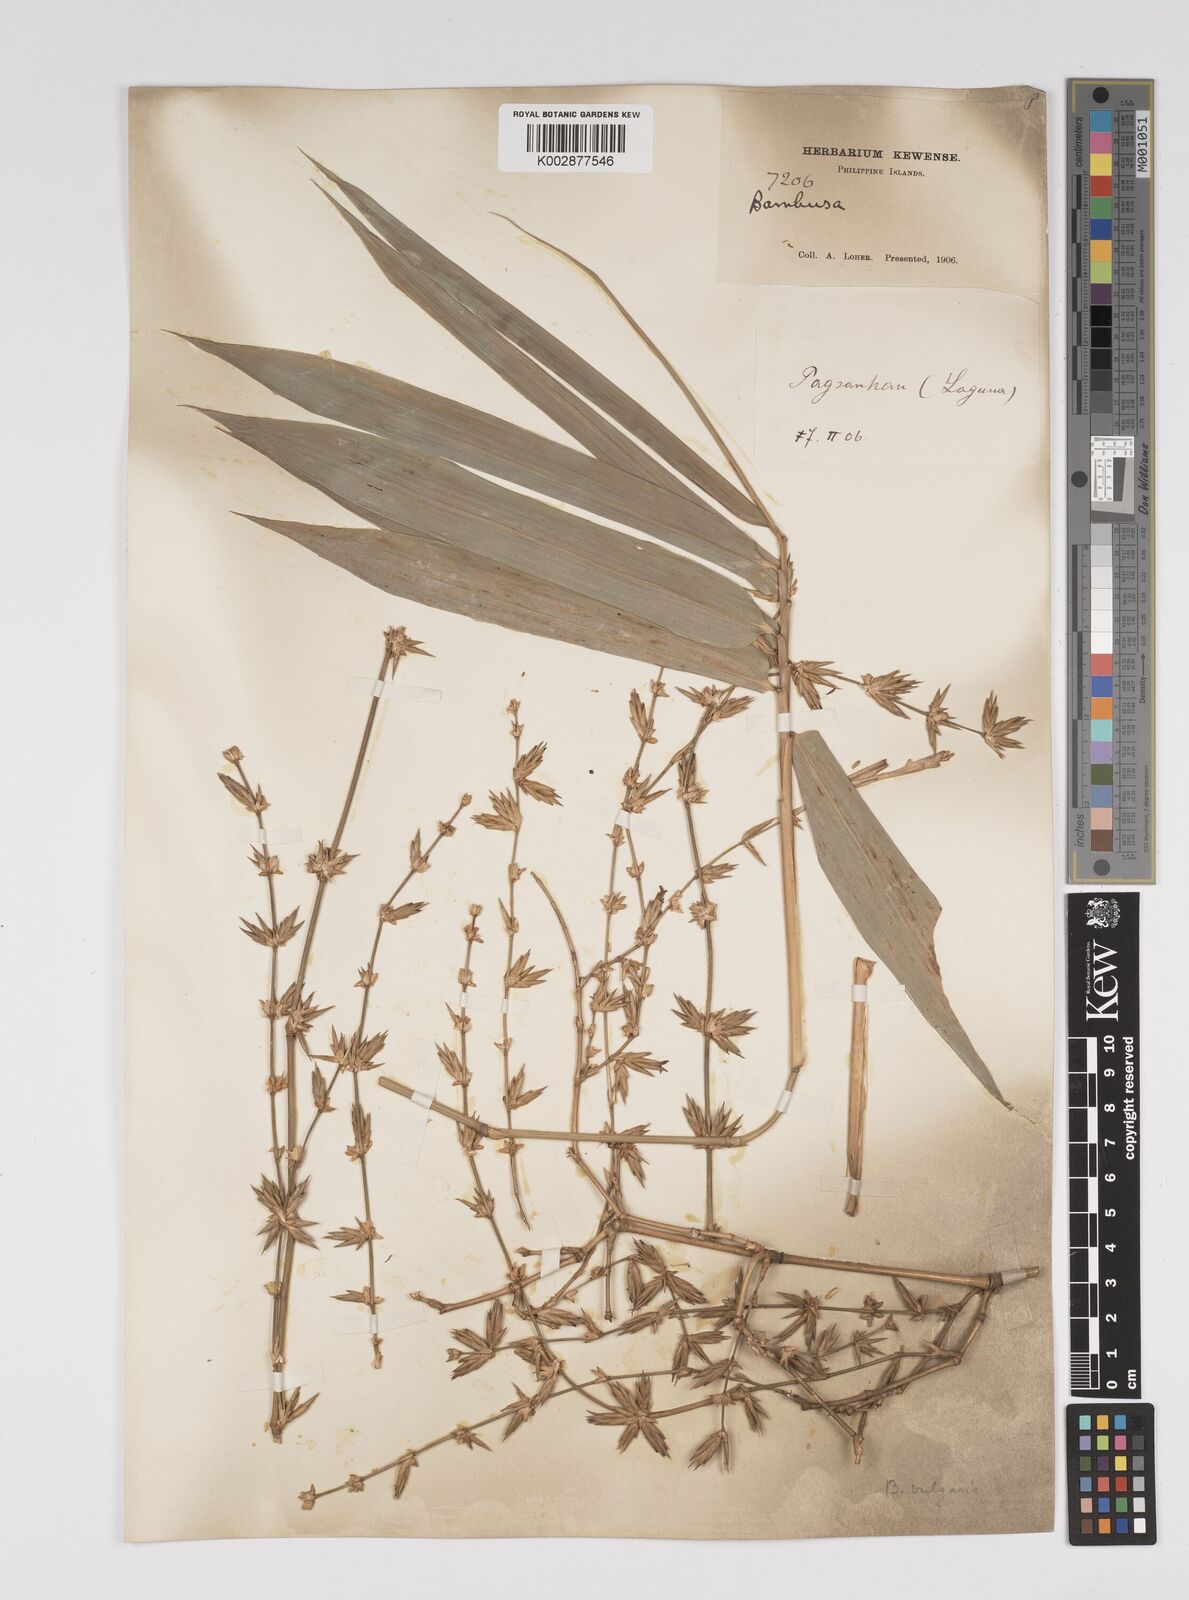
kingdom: Plantae
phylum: Tracheophyta
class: Liliopsida
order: Poales
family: Poaceae
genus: Bambusa
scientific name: Bambusa vulgaris
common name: Common bamboo
